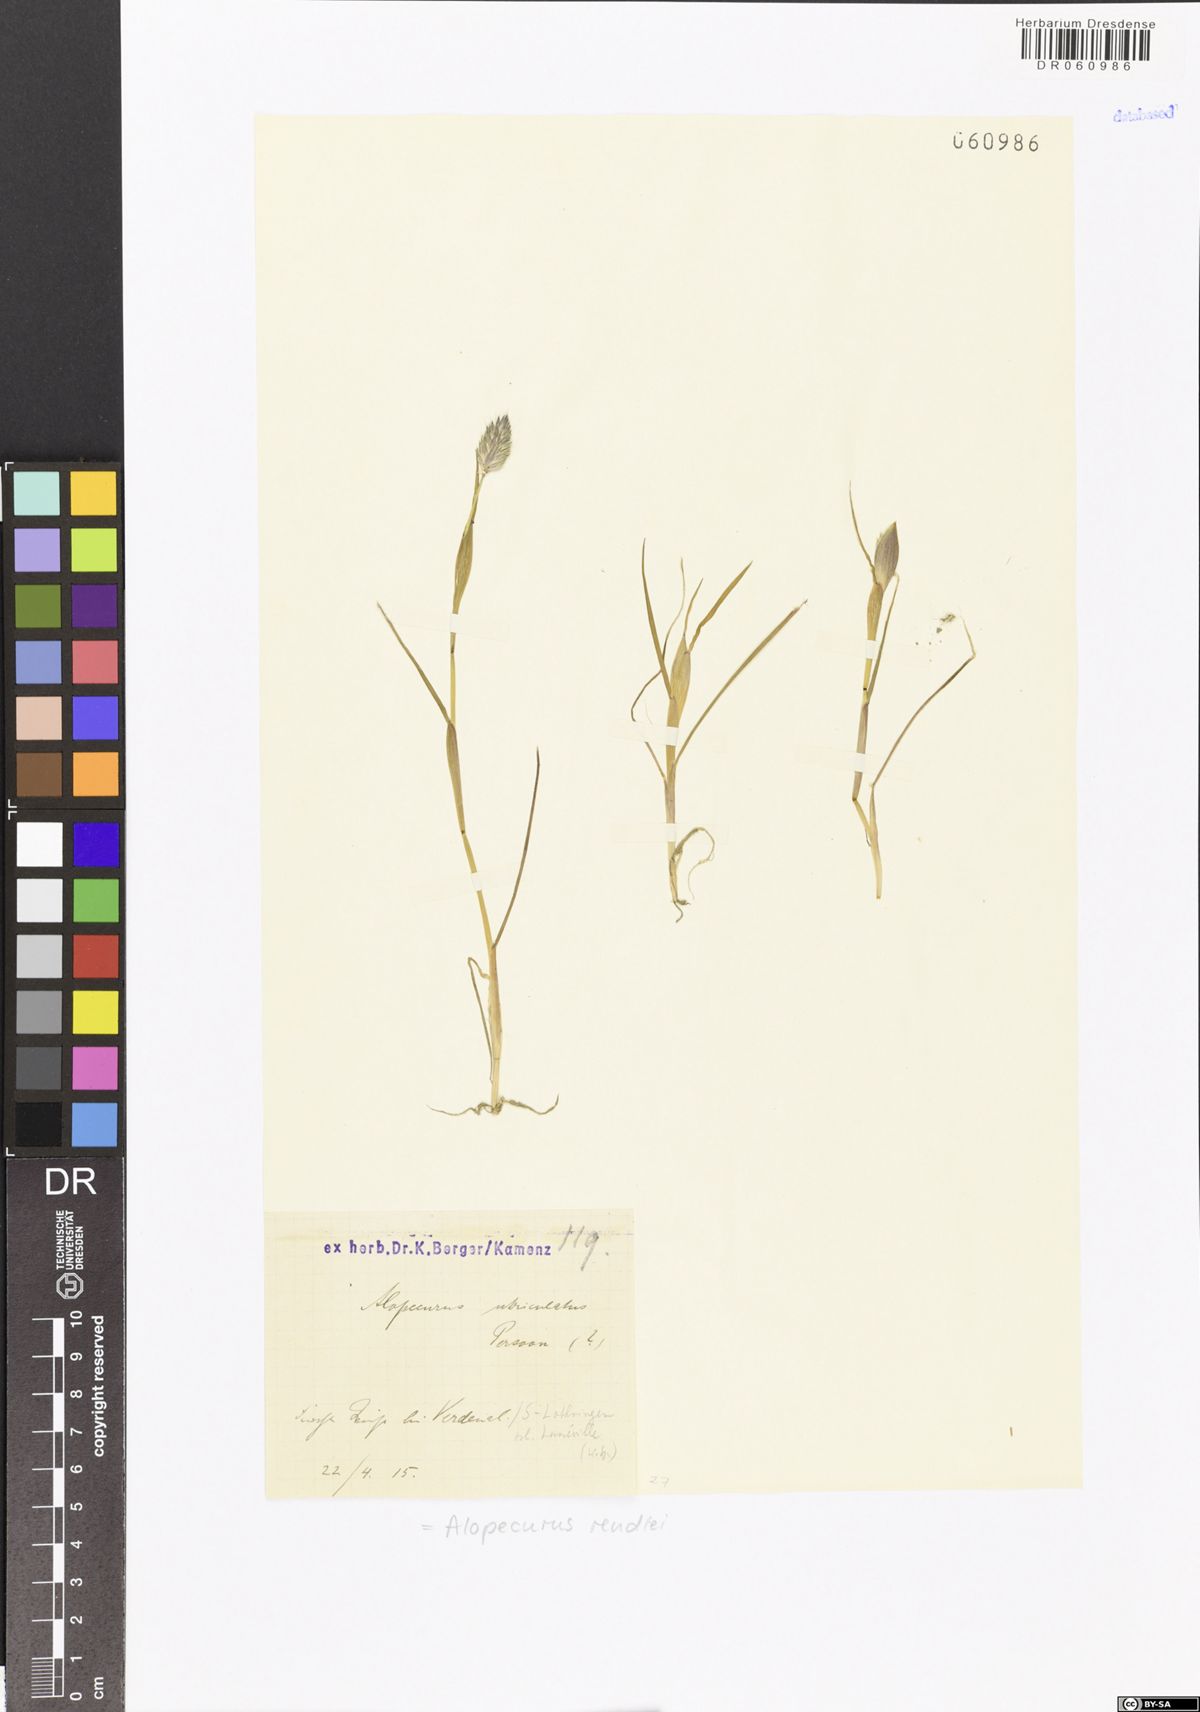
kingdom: Plantae
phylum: Tracheophyta
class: Liliopsida
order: Poales
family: Poaceae
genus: Alopecurus
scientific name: Alopecurus rendlei
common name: Rendle's meadow foxtail
